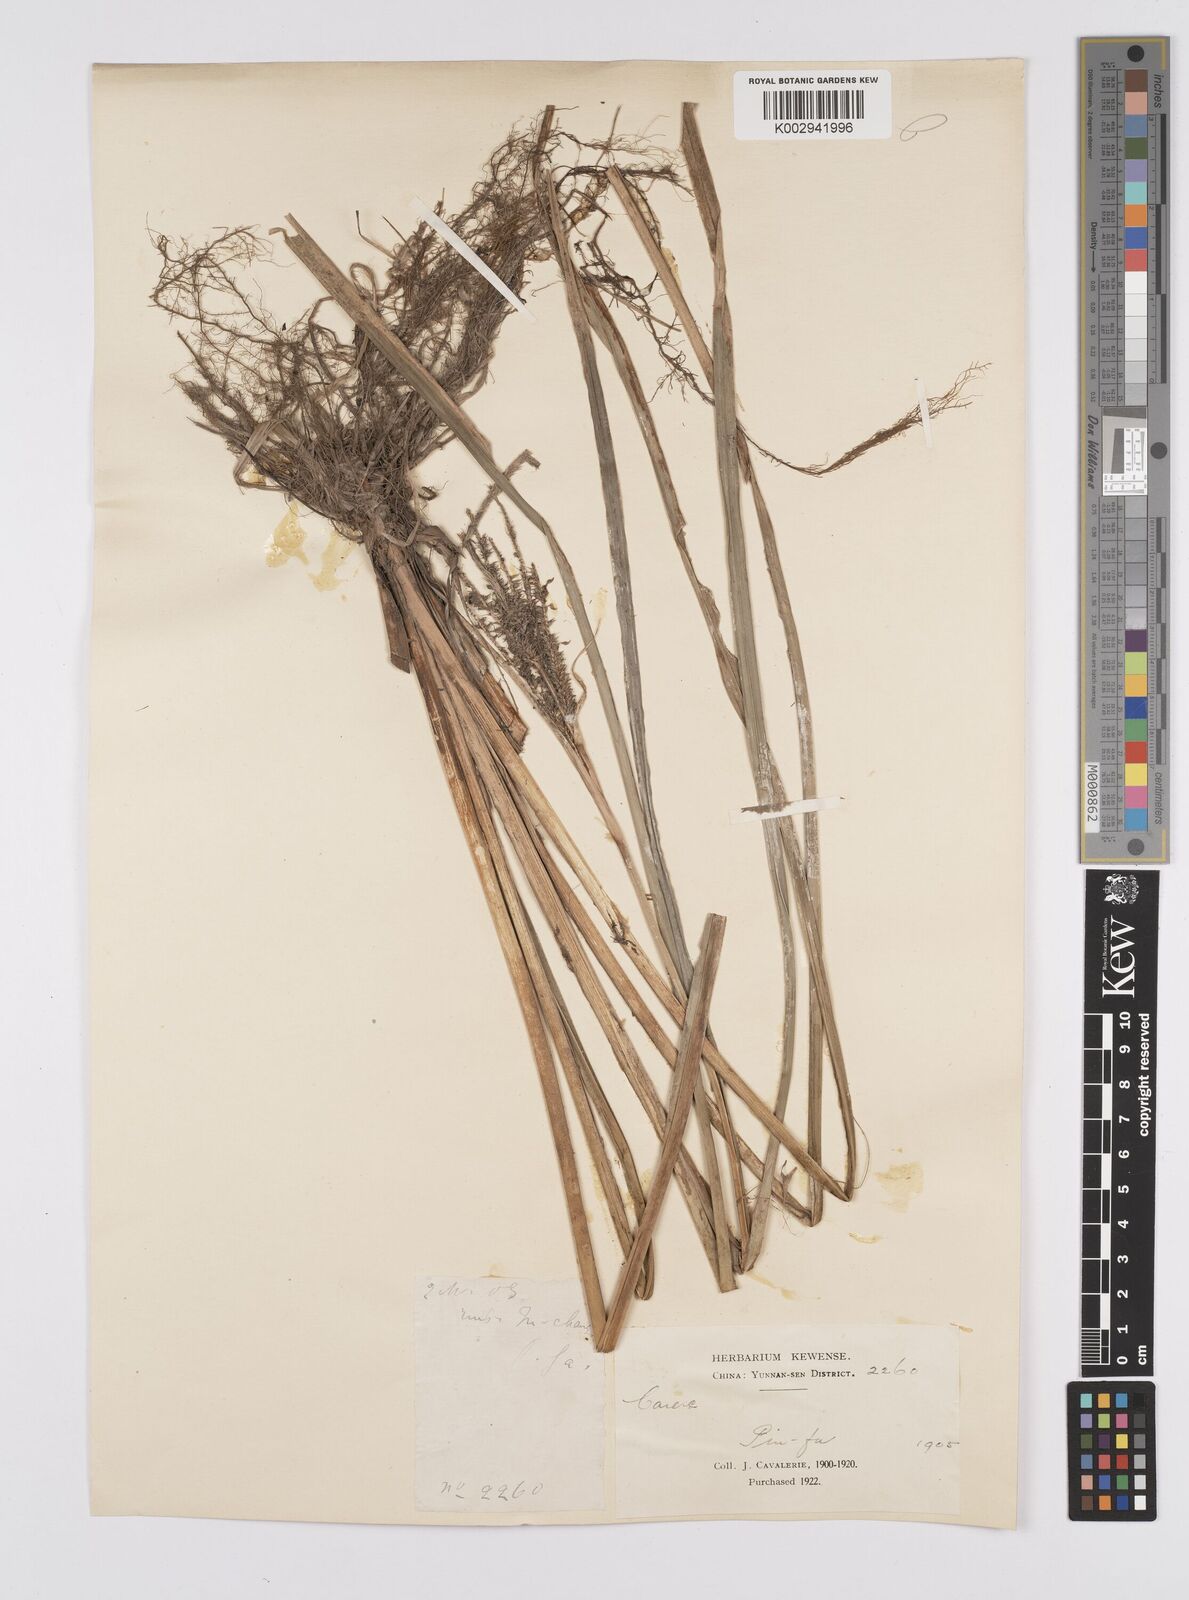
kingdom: Plantae
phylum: Tracheophyta
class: Liliopsida
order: Poales
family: Cyperaceae
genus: Carex
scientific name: Carex dispalata
